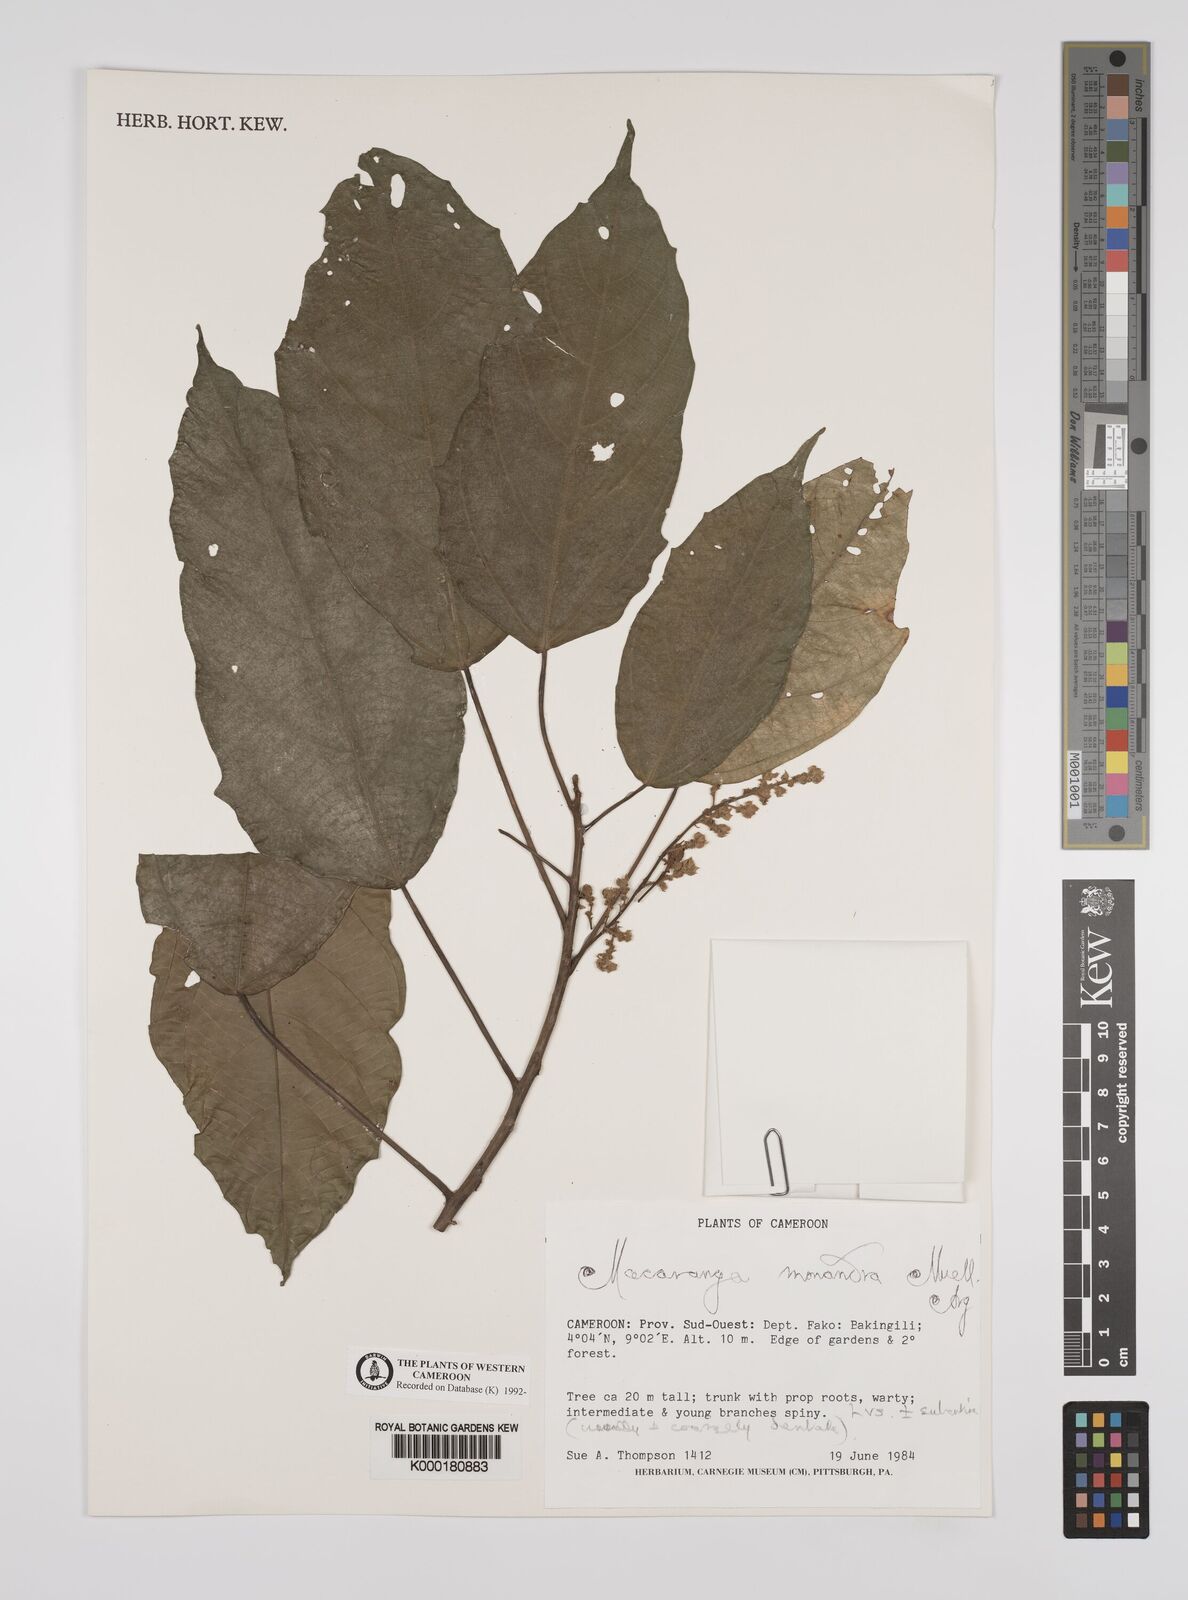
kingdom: Plantae
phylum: Tracheophyta
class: Magnoliopsida
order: Malpighiales
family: Euphorbiaceae
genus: Macaranga
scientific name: Macaranga
